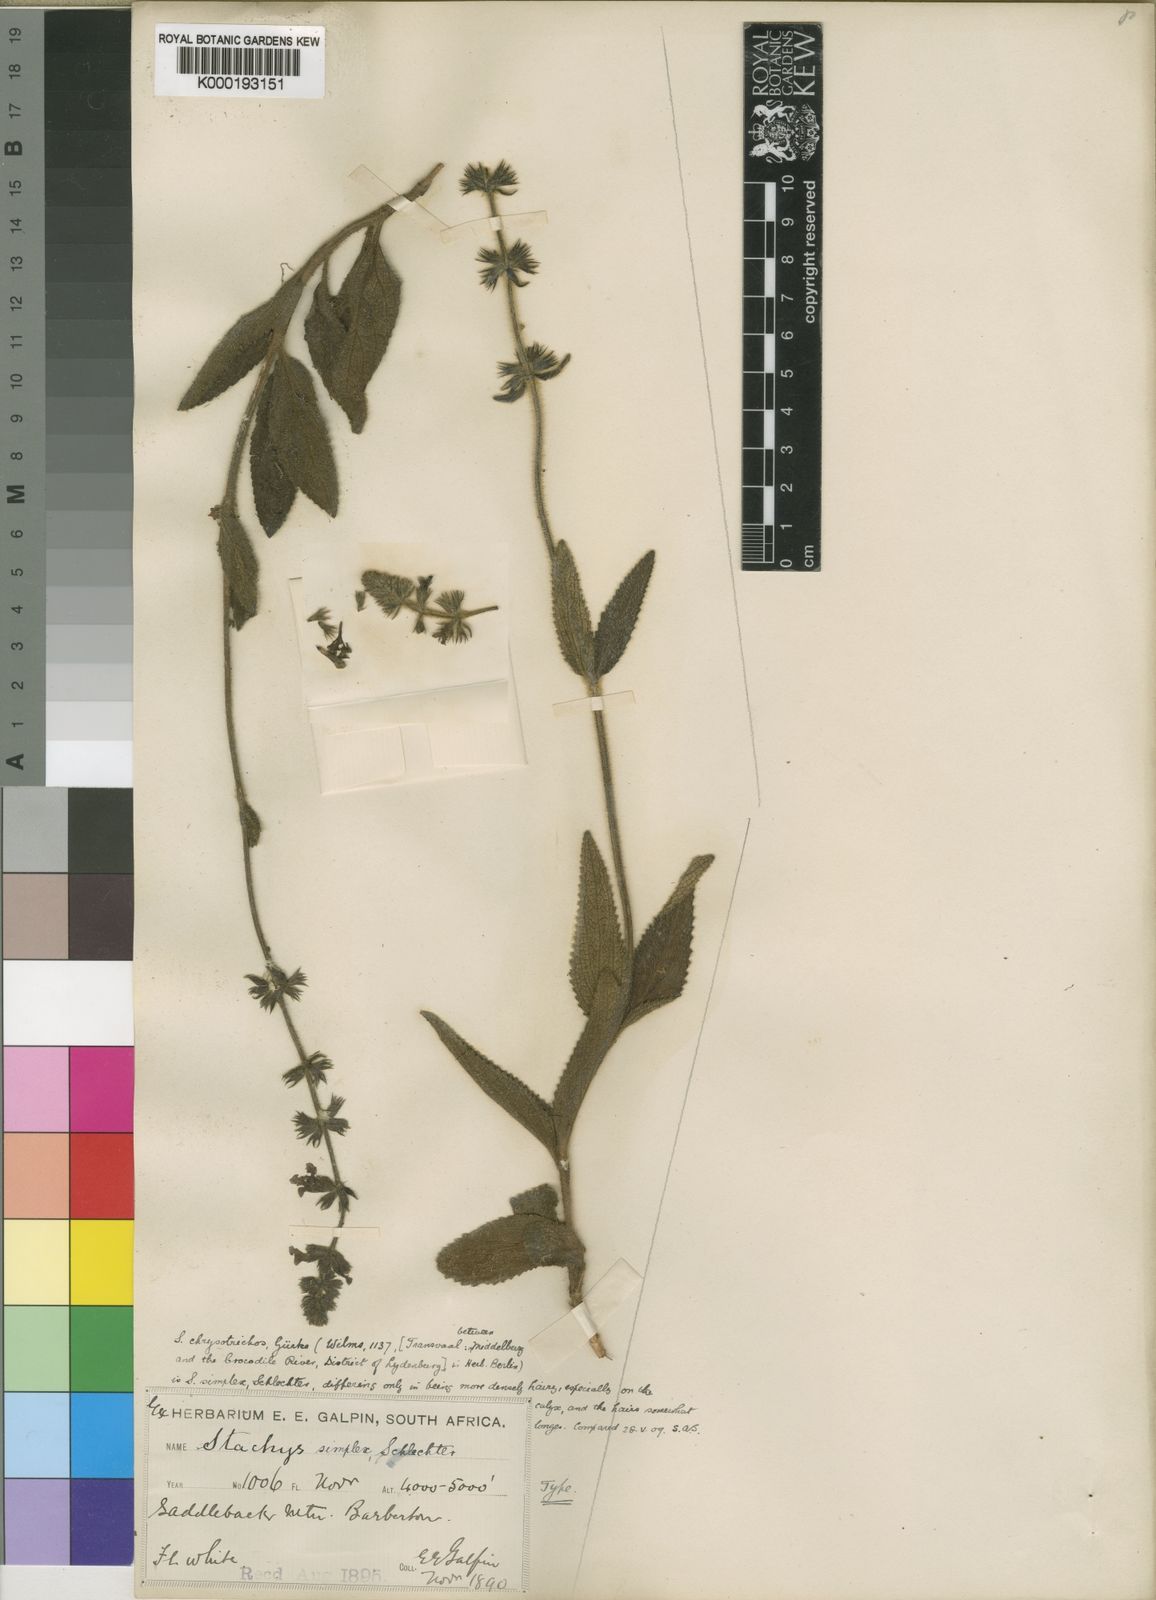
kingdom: Plantae
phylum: Tracheophyta
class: Magnoliopsida
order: Lamiales
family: Lamiaceae
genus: Stachys
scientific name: Stachys simplex
